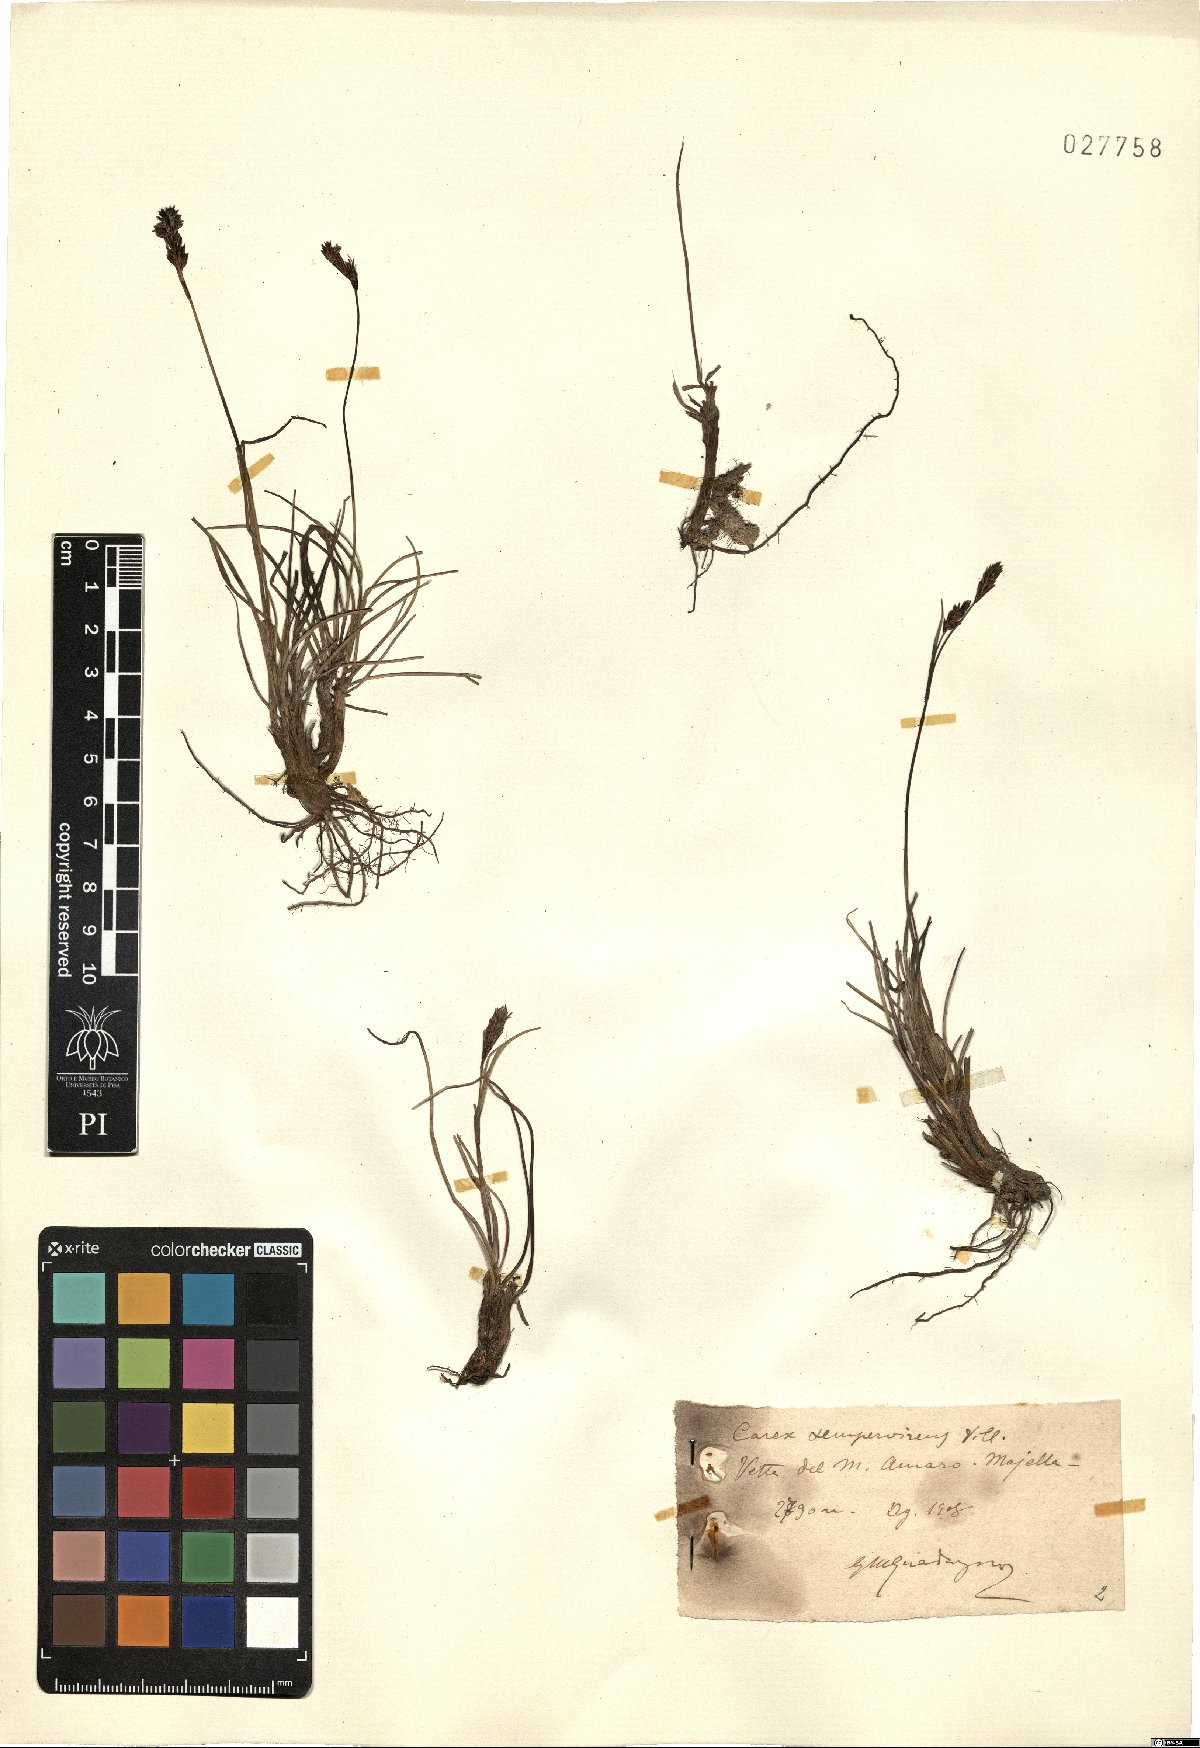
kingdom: Plantae
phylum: Tracheophyta
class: Liliopsida
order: Poales
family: Cyperaceae
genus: Carex
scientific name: Carex sempervirens
